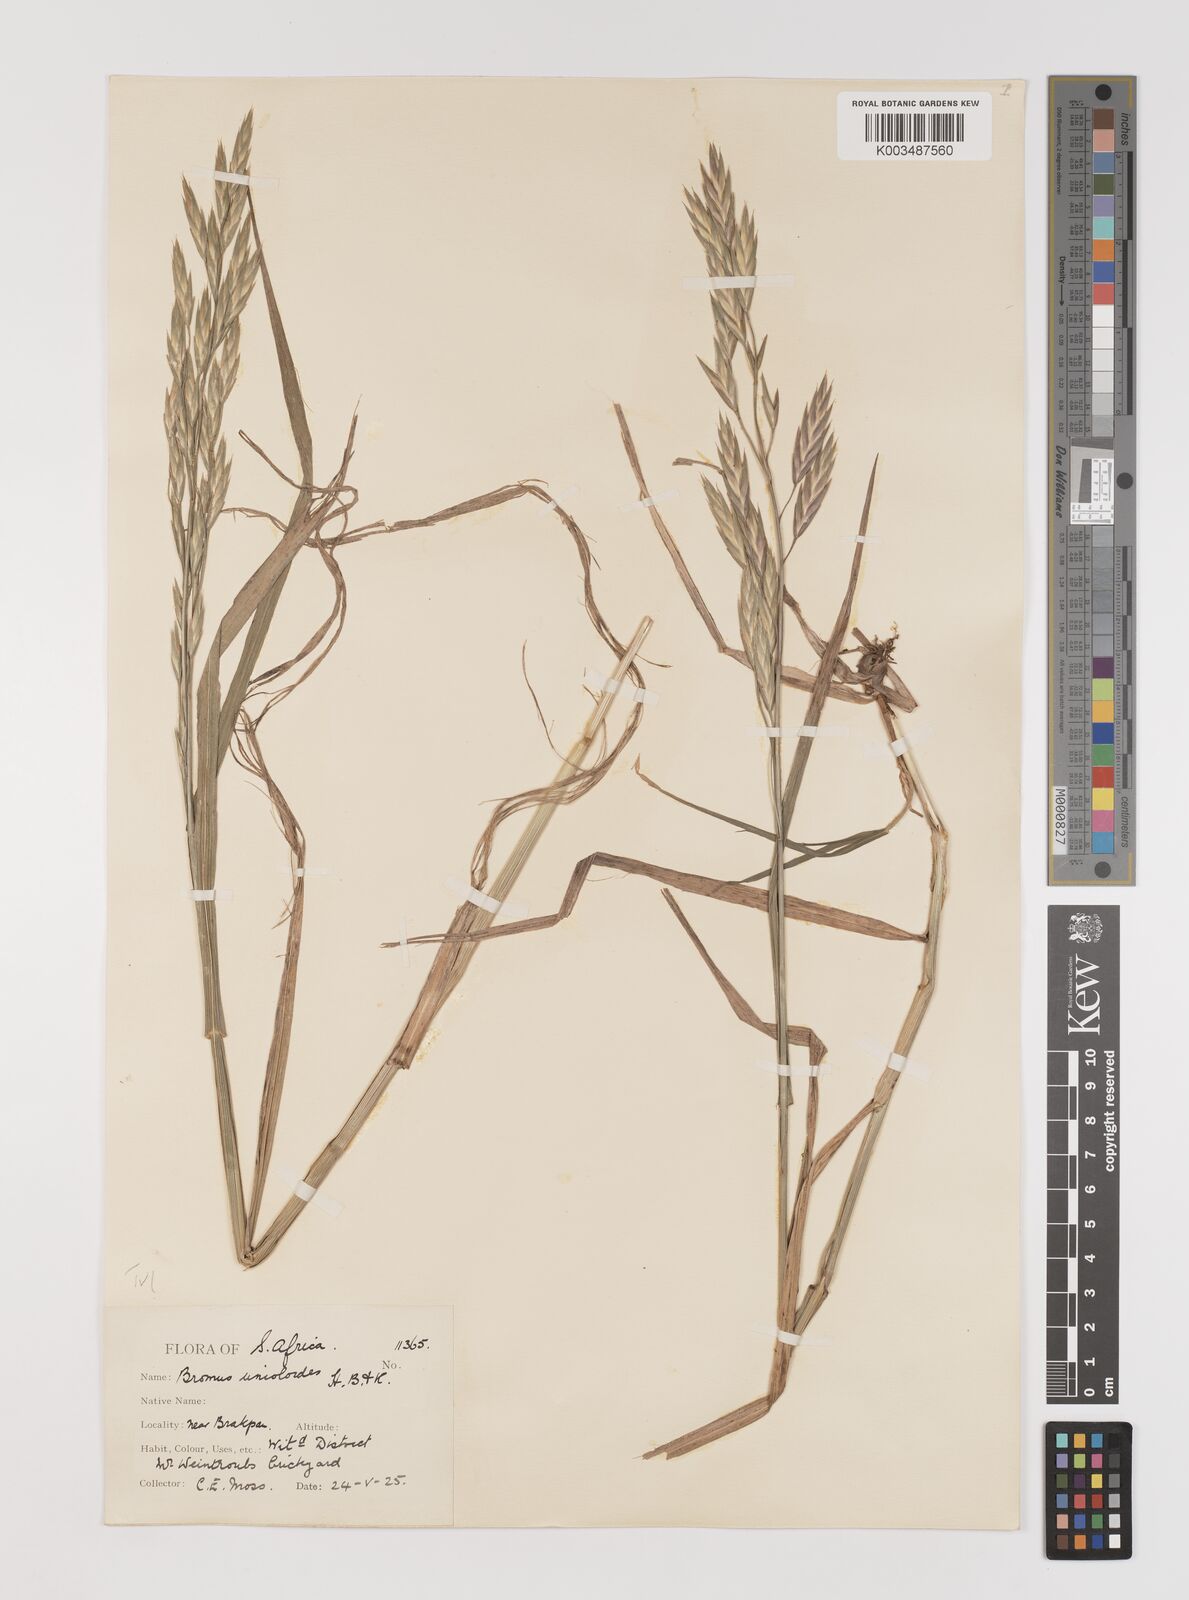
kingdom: Plantae
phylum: Tracheophyta
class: Liliopsida
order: Poales
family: Poaceae
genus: Bromus
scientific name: Bromus catharticus
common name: Rescuegrass
